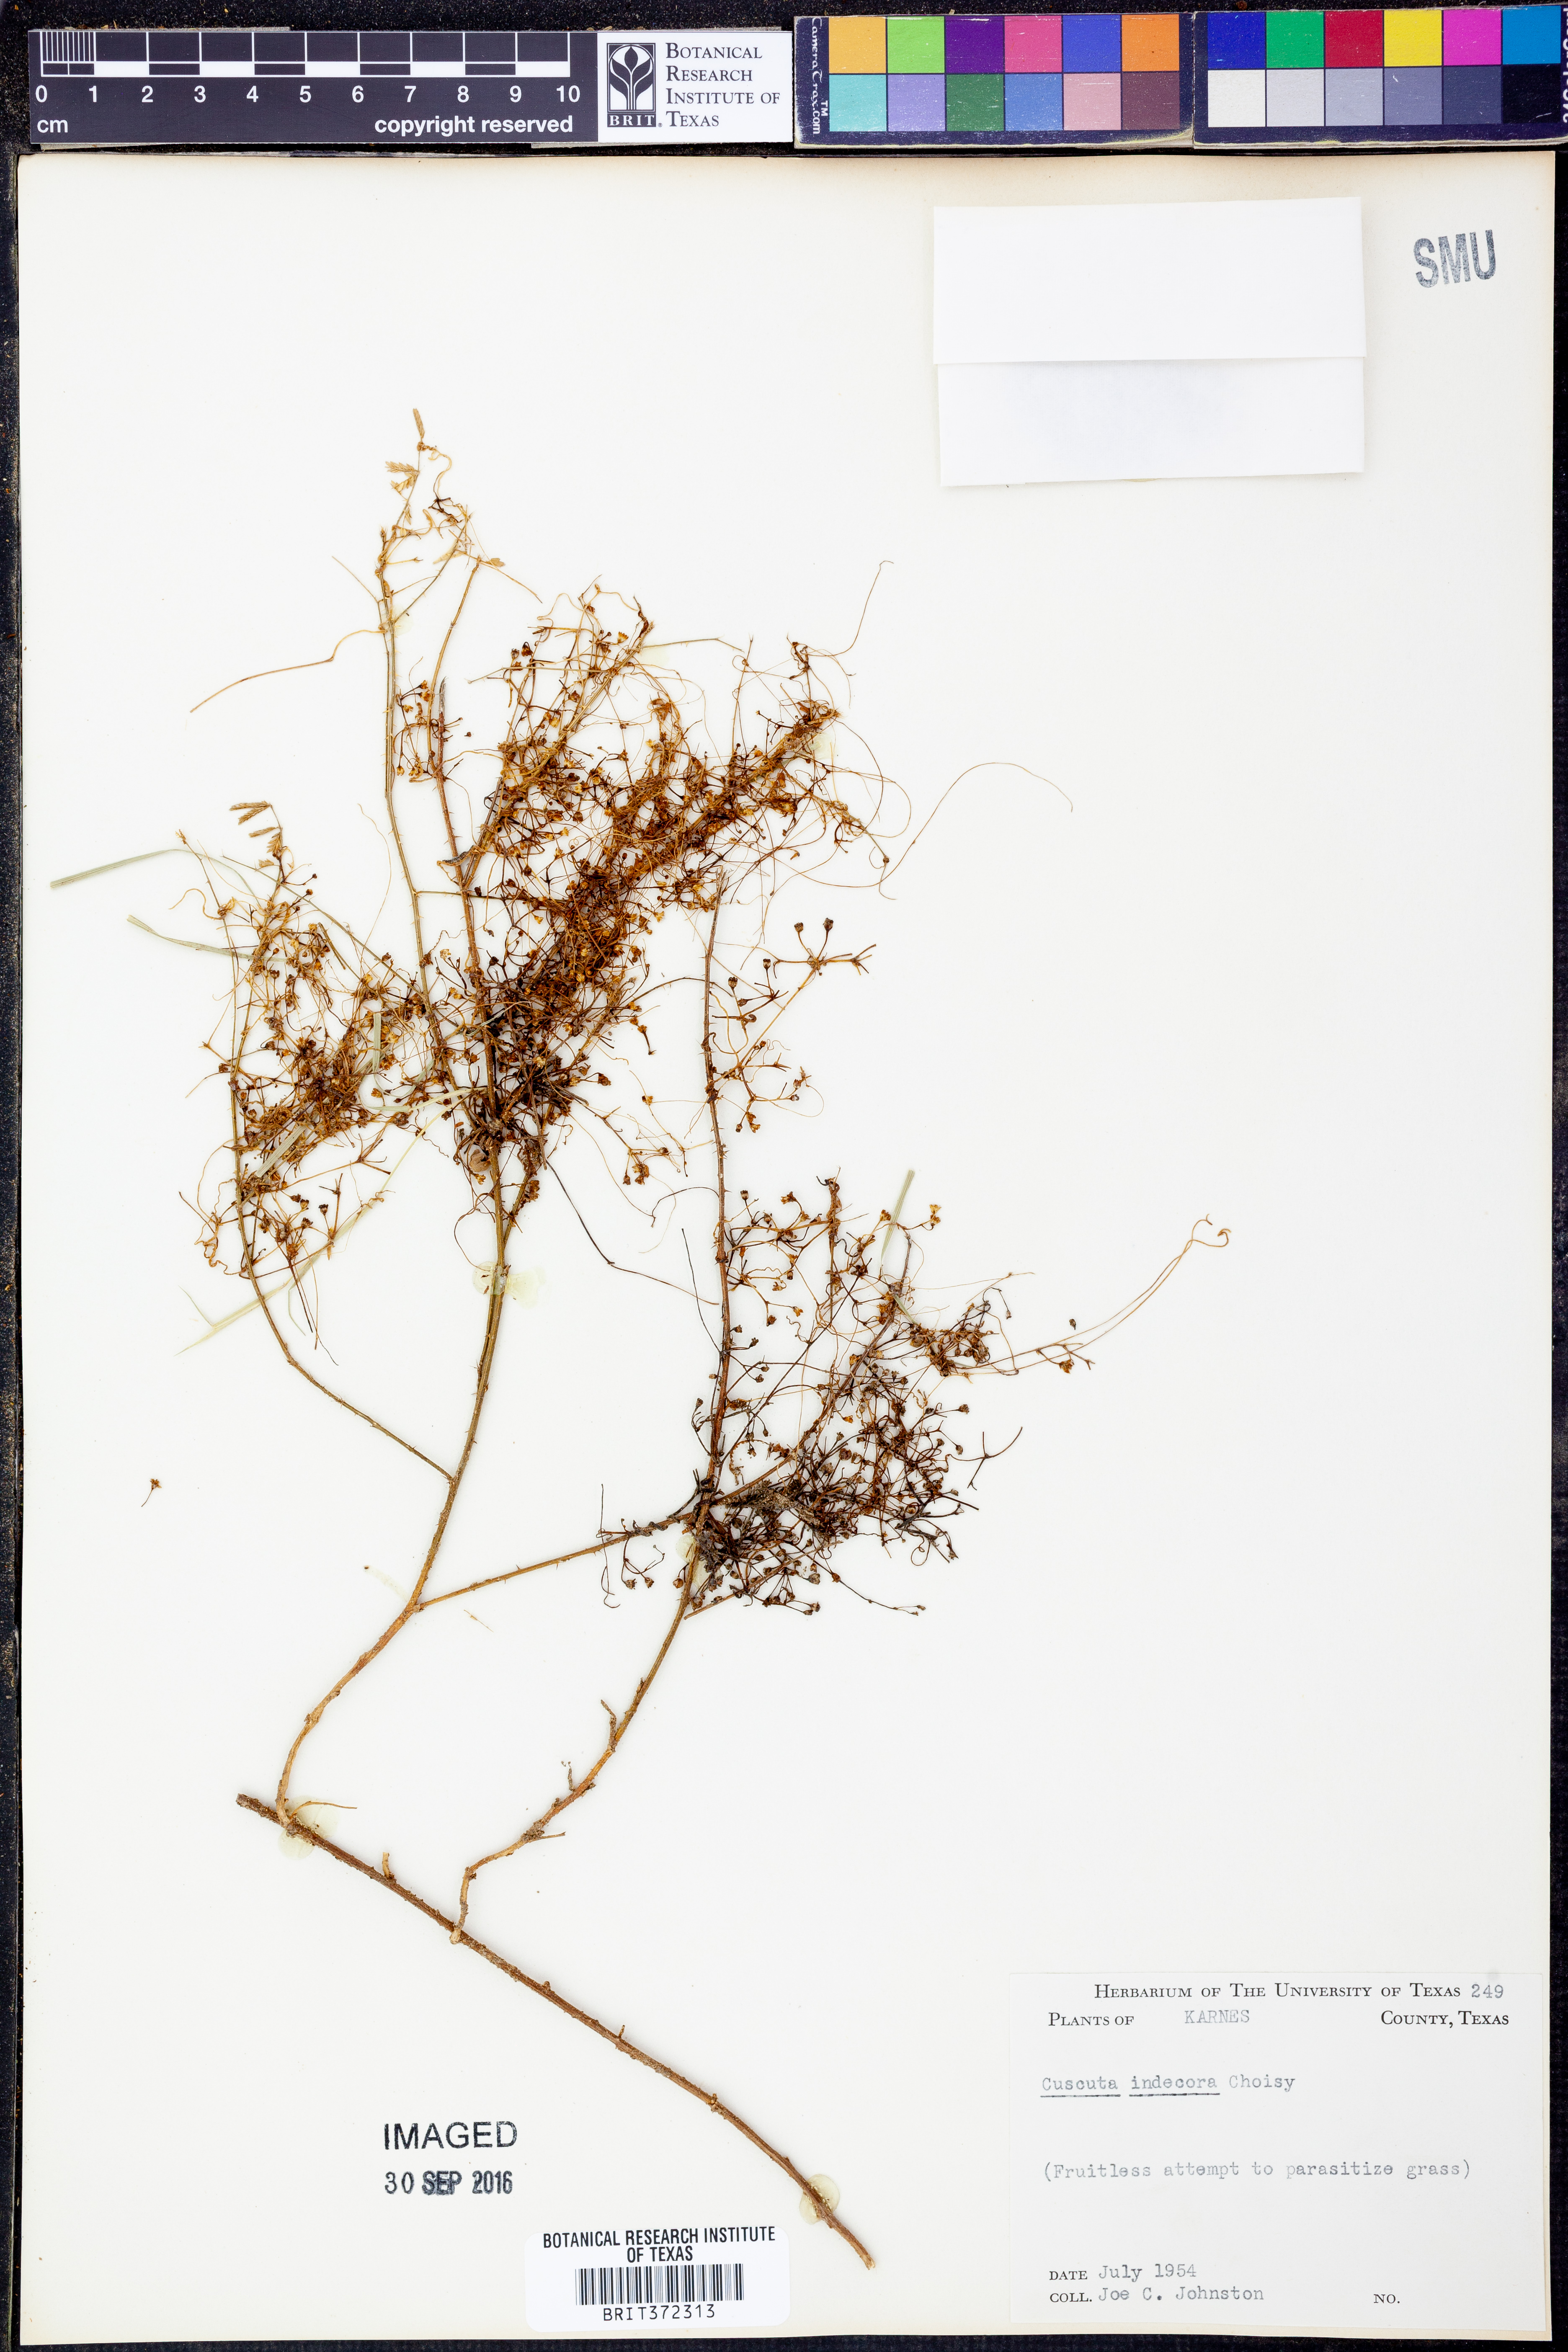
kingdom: Plantae
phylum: Tracheophyta
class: Magnoliopsida
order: Solanales
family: Convolvulaceae
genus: Cuscuta
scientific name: Cuscuta indecora
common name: Large-seed dodder
